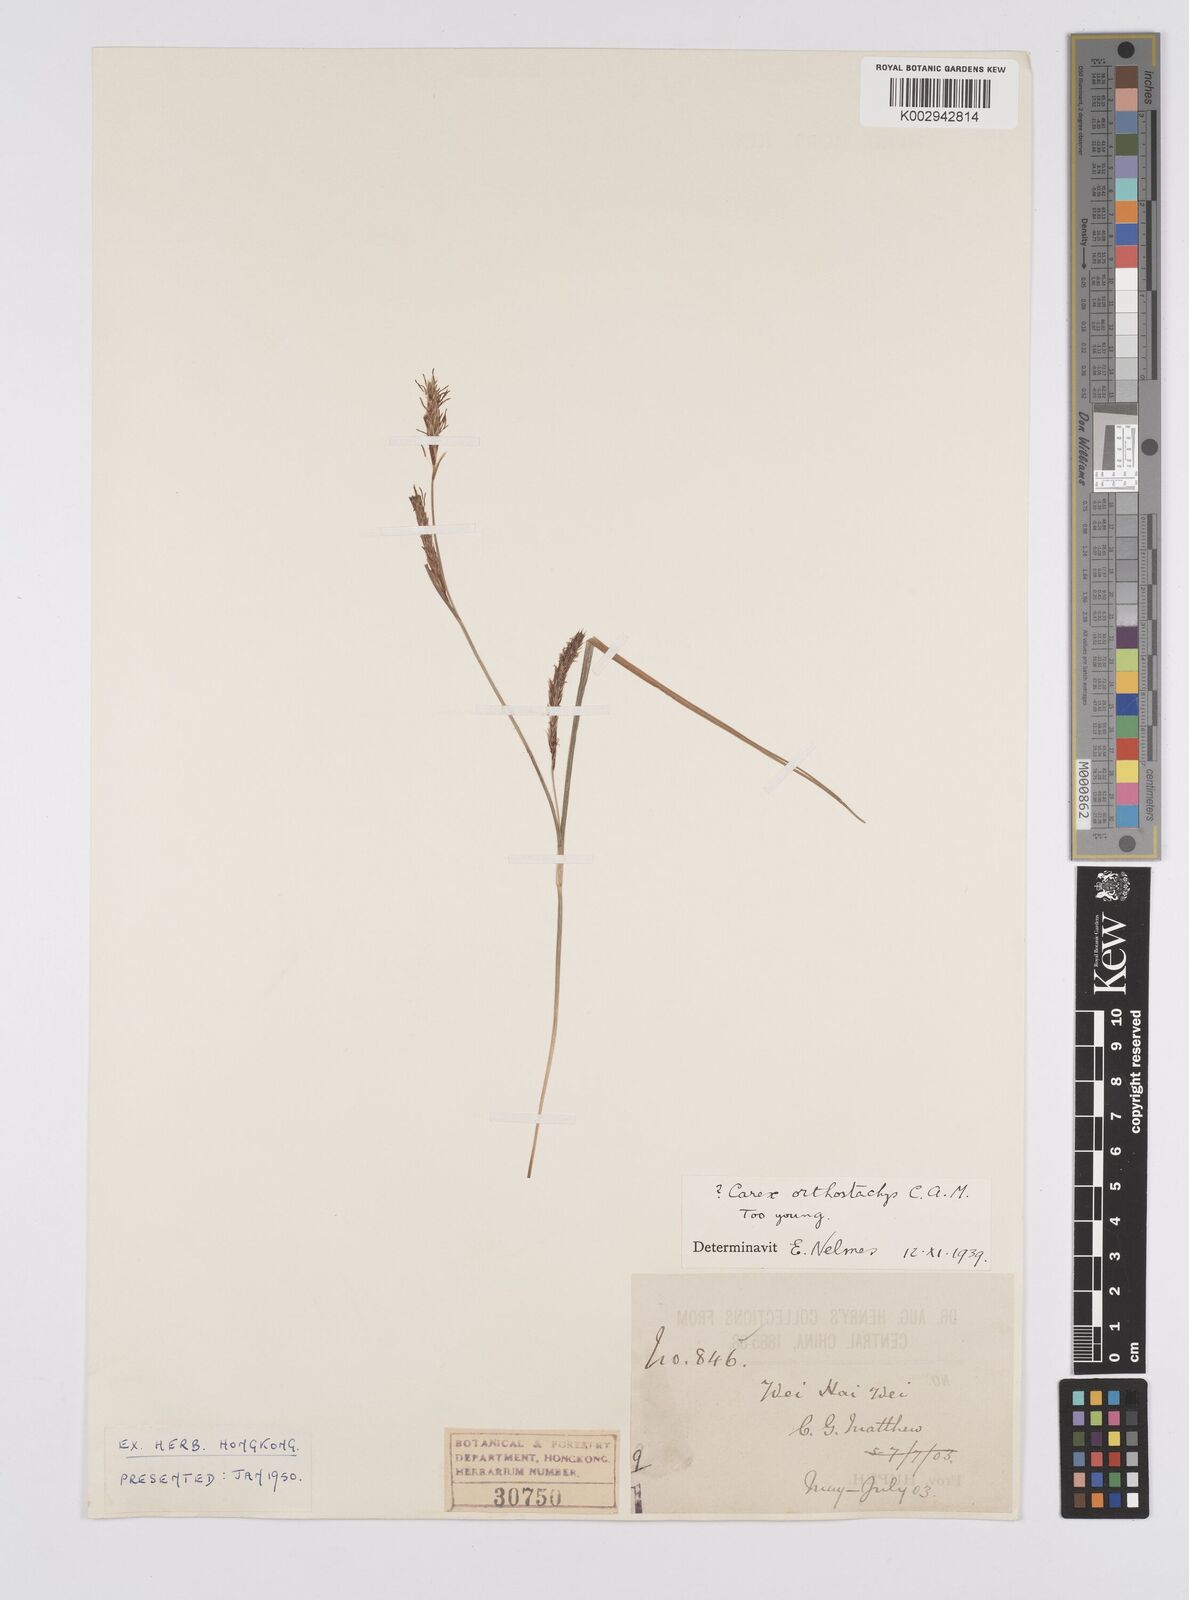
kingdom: Plantae
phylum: Tracheophyta
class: Liliopsida
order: Poales
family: Cyperaceae
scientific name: Cyperaceae
